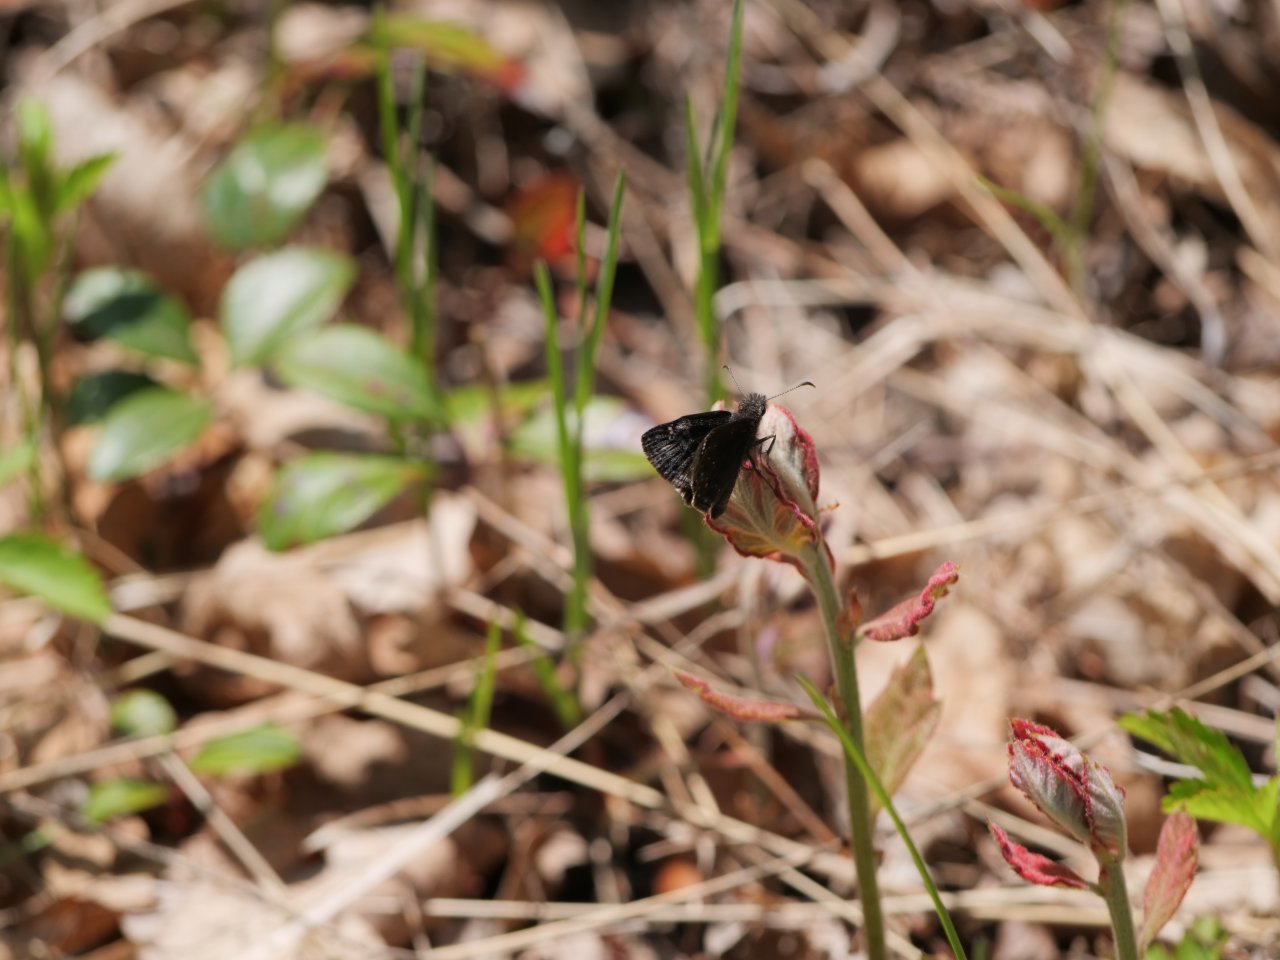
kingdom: Animalia
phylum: Arthropoda
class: Insecta
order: Lepidoptera
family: Hesperiidae
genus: Erynnis
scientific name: Erynnis
